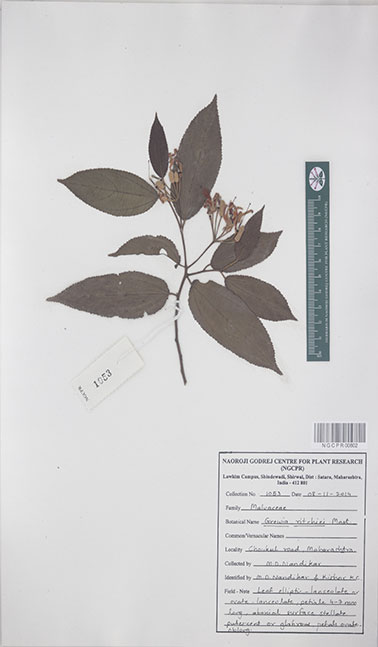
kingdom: Plantae
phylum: Tracheophyta
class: Magnoliopsida
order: Malvales
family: Malvaceae
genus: Grewia
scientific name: Grewia ritchiei
